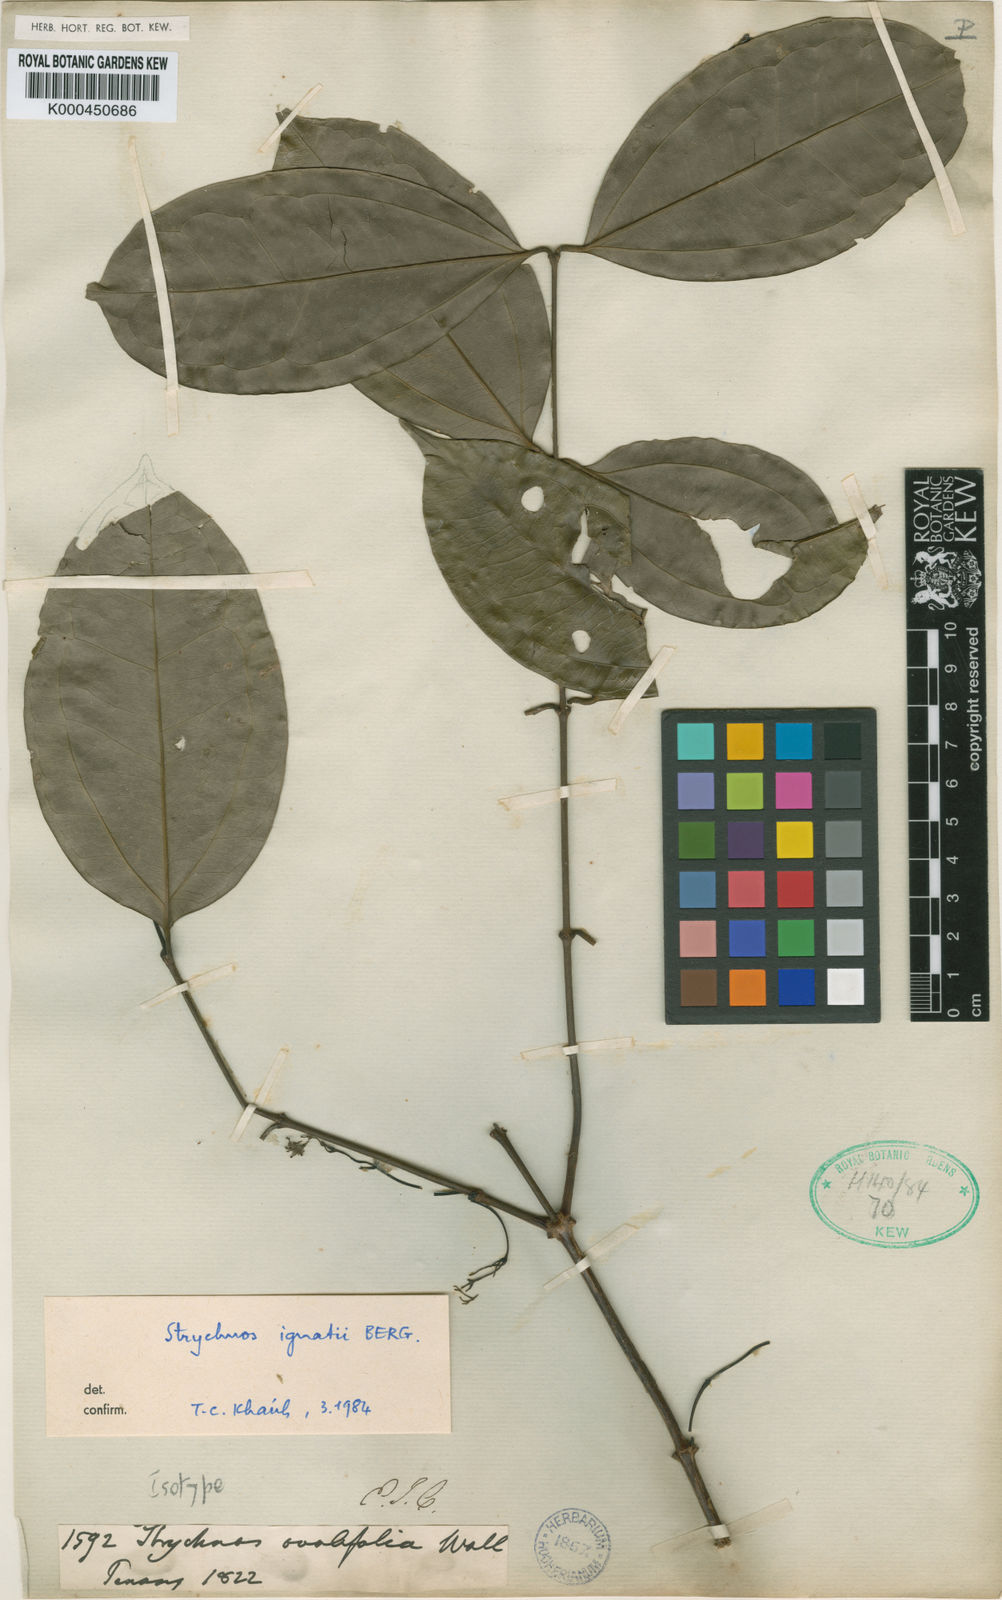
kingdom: Plantae
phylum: Tracheophyta
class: Magnoliopsida
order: Gentianales
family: Loganiaceae
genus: Strychnos
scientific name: Strychnos ignatii
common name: Ignatius-bean
